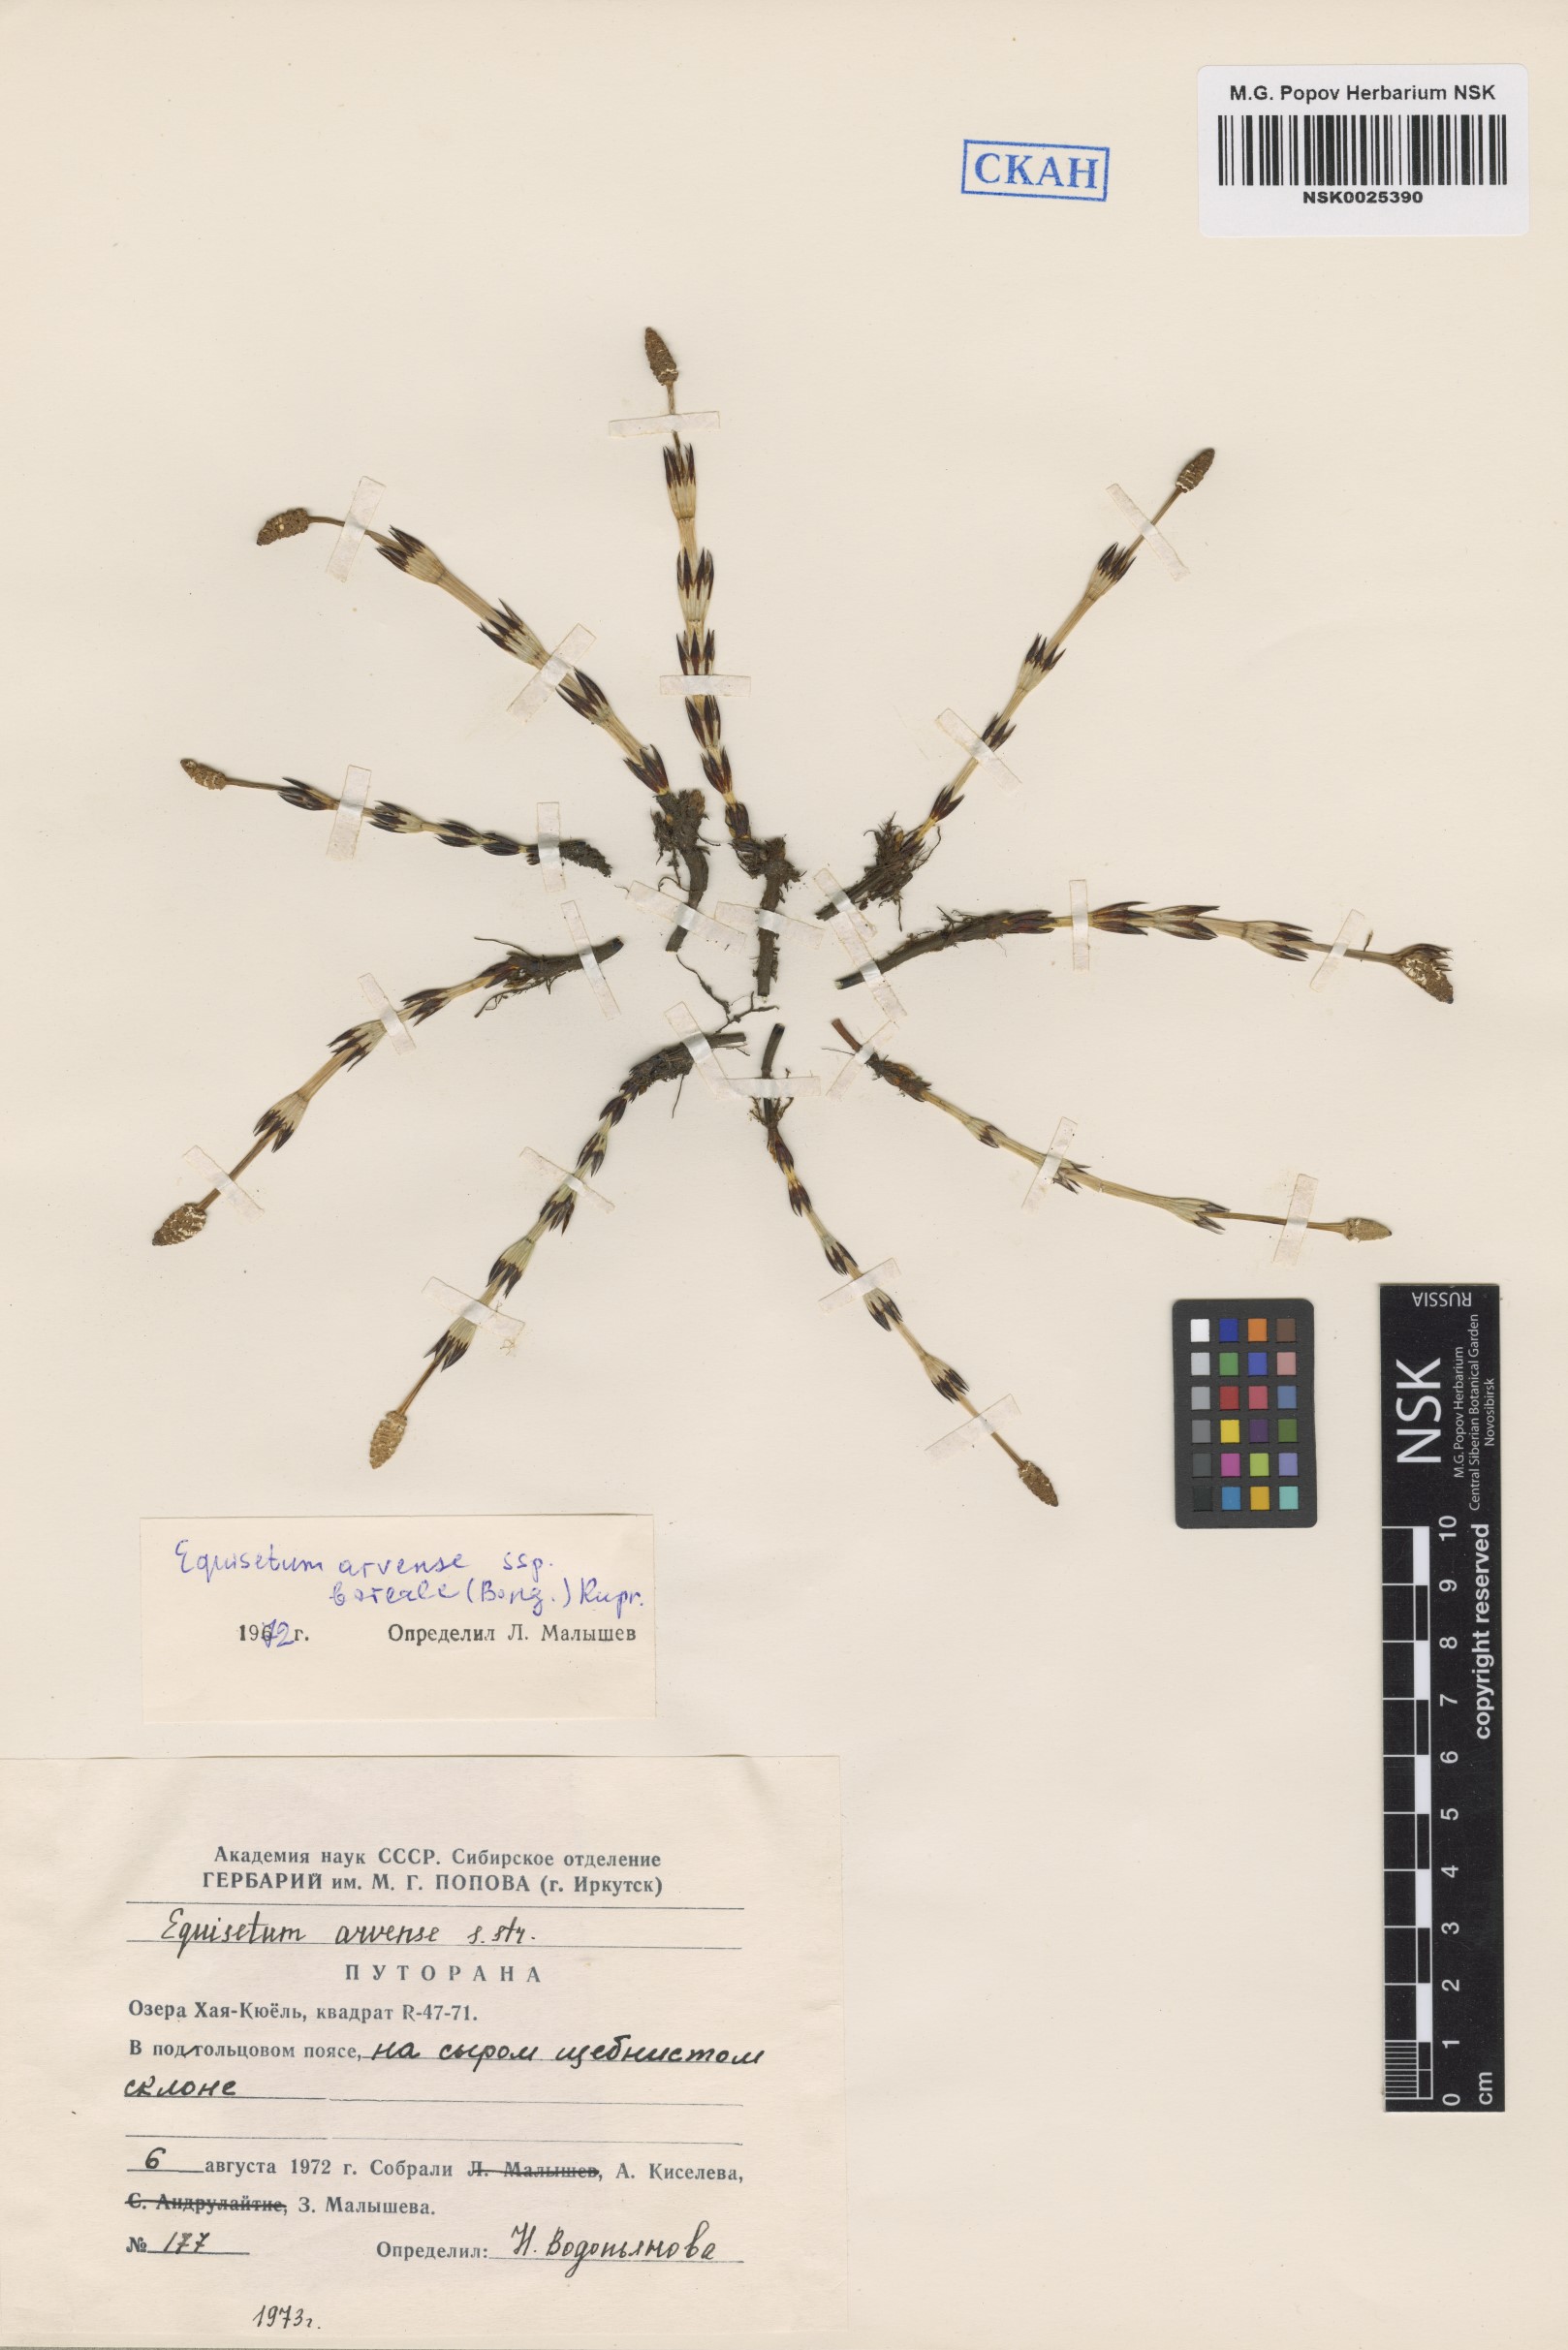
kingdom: Plantae
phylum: Tracheophyta
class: Polypodiopsida
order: Equisetales
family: Equisetaceae
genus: Equisetum
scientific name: Equisetum arvense
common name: Field horsetail
